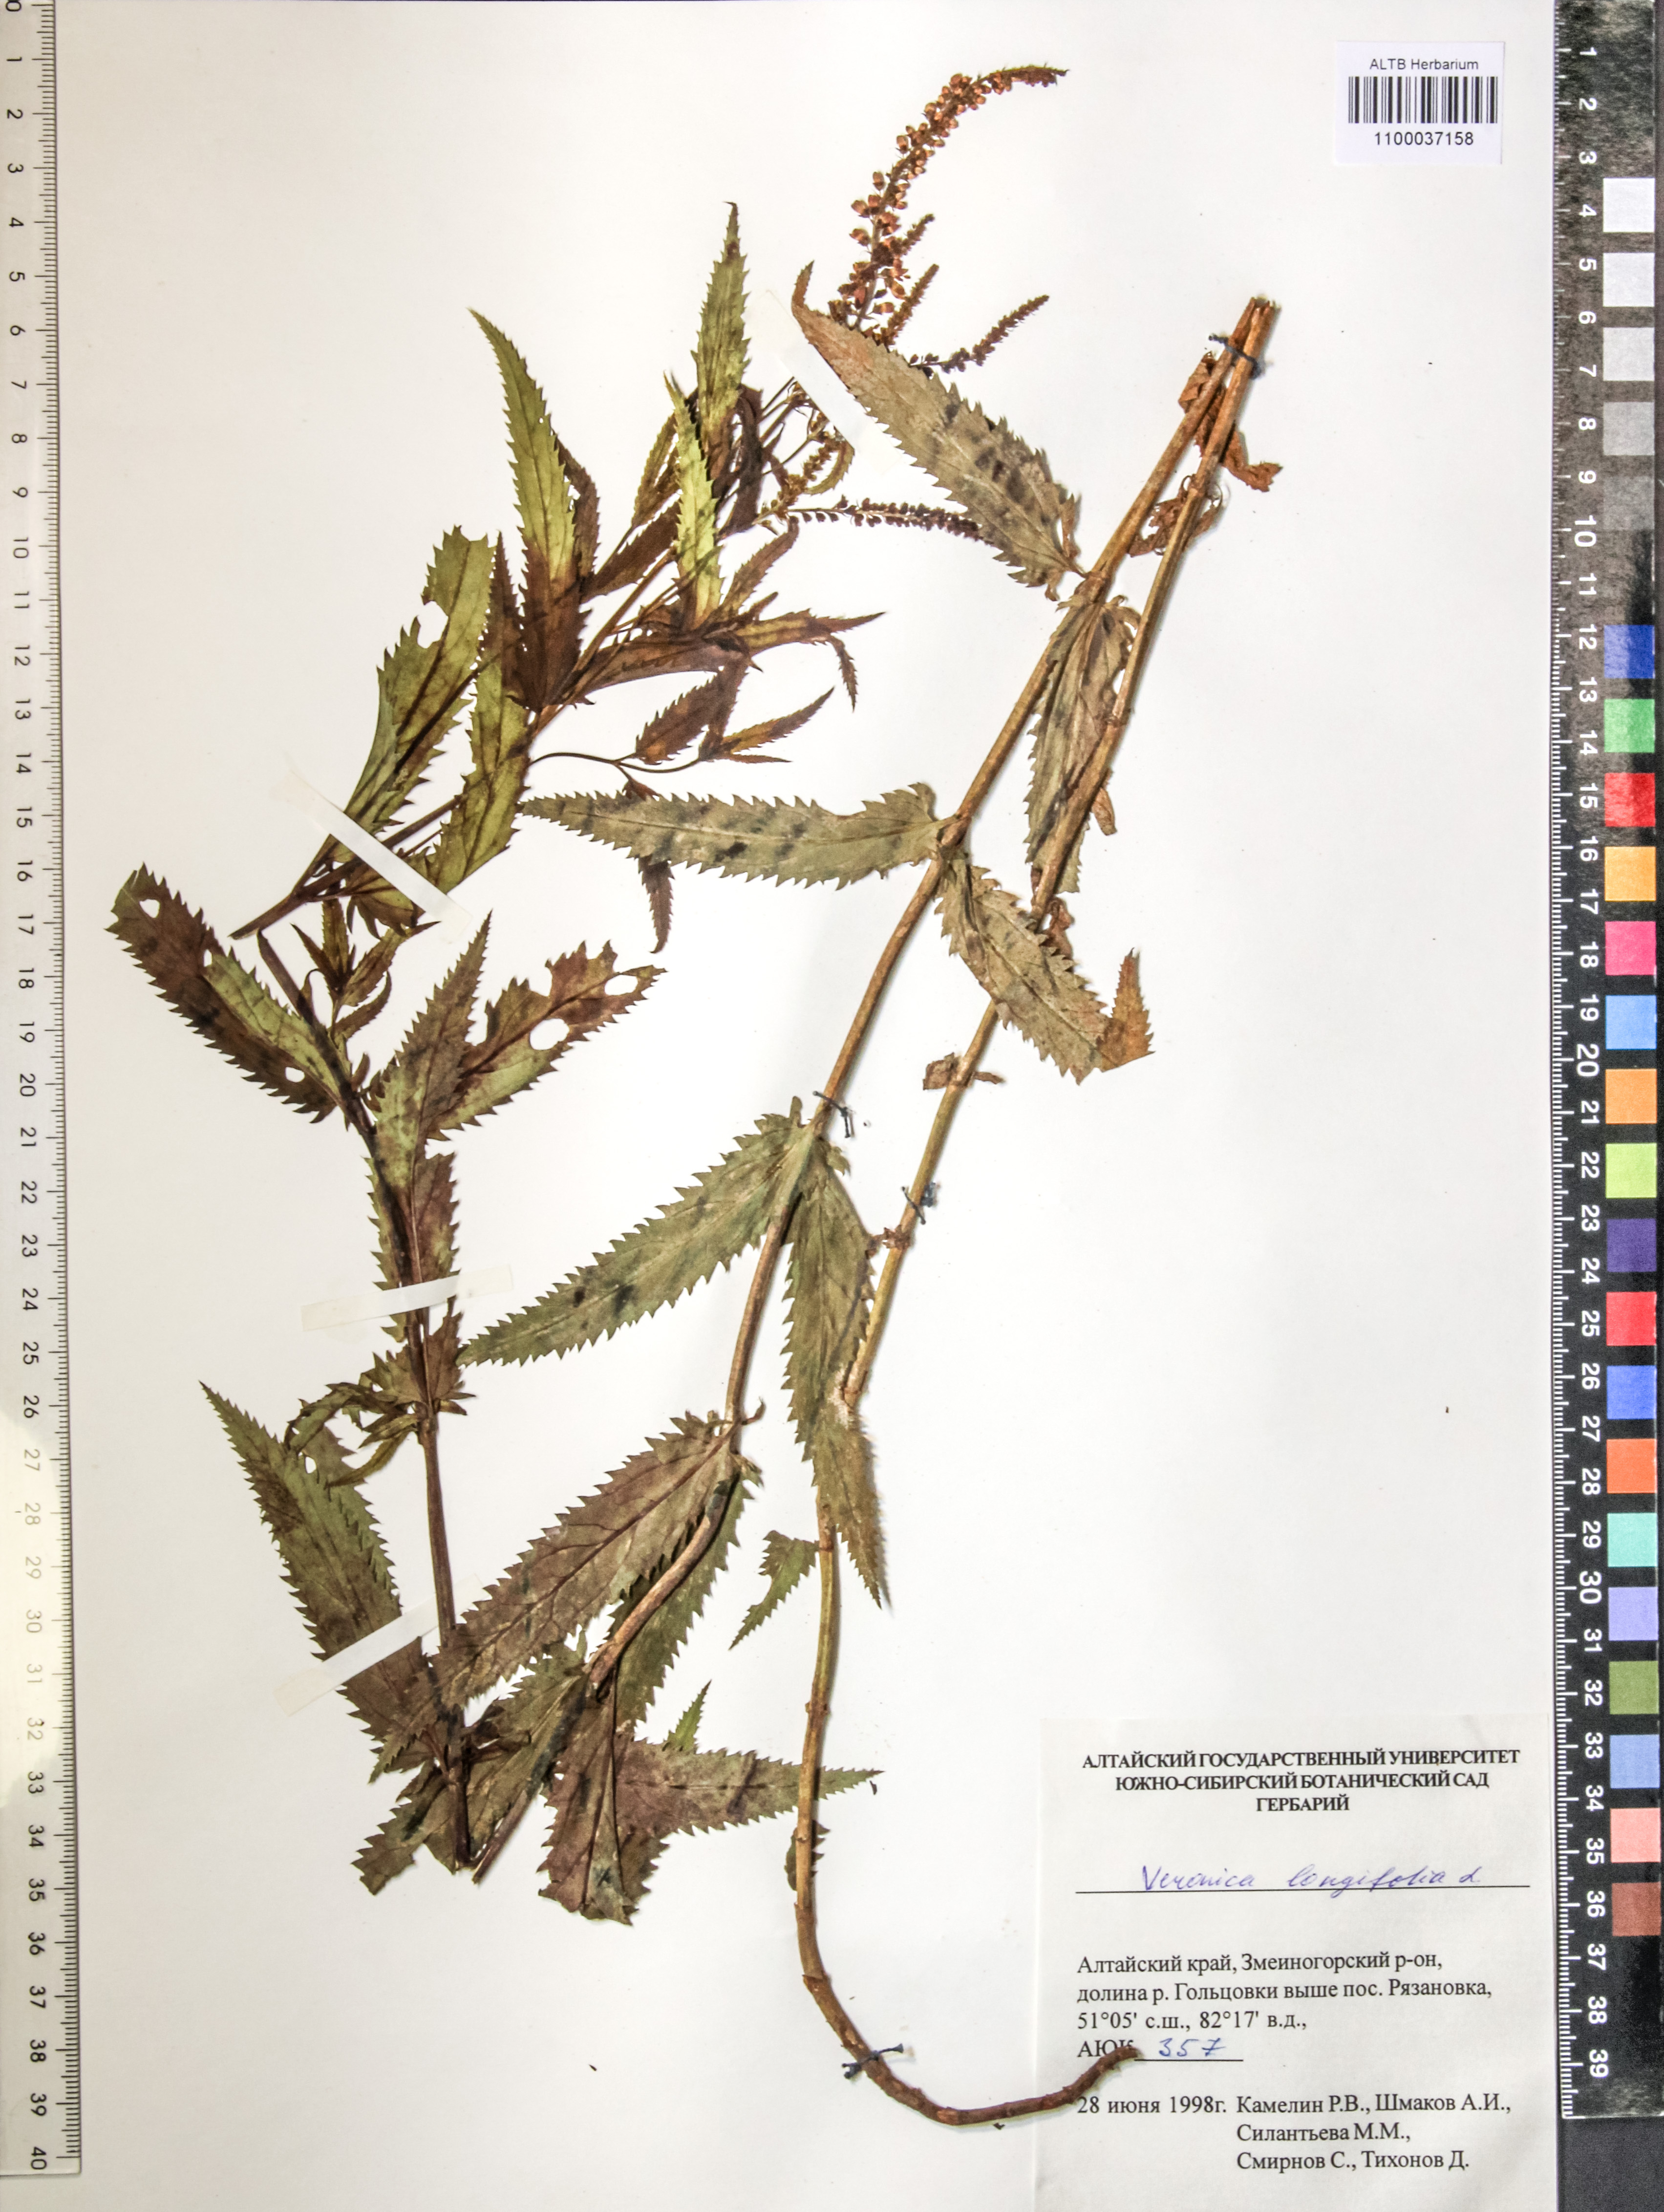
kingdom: Plantae
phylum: Tracheophyta
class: Magnoliopsida
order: Lamiales
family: Plantaginaceae
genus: Veronica
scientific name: Veronica longifolia
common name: Garden speedwell
